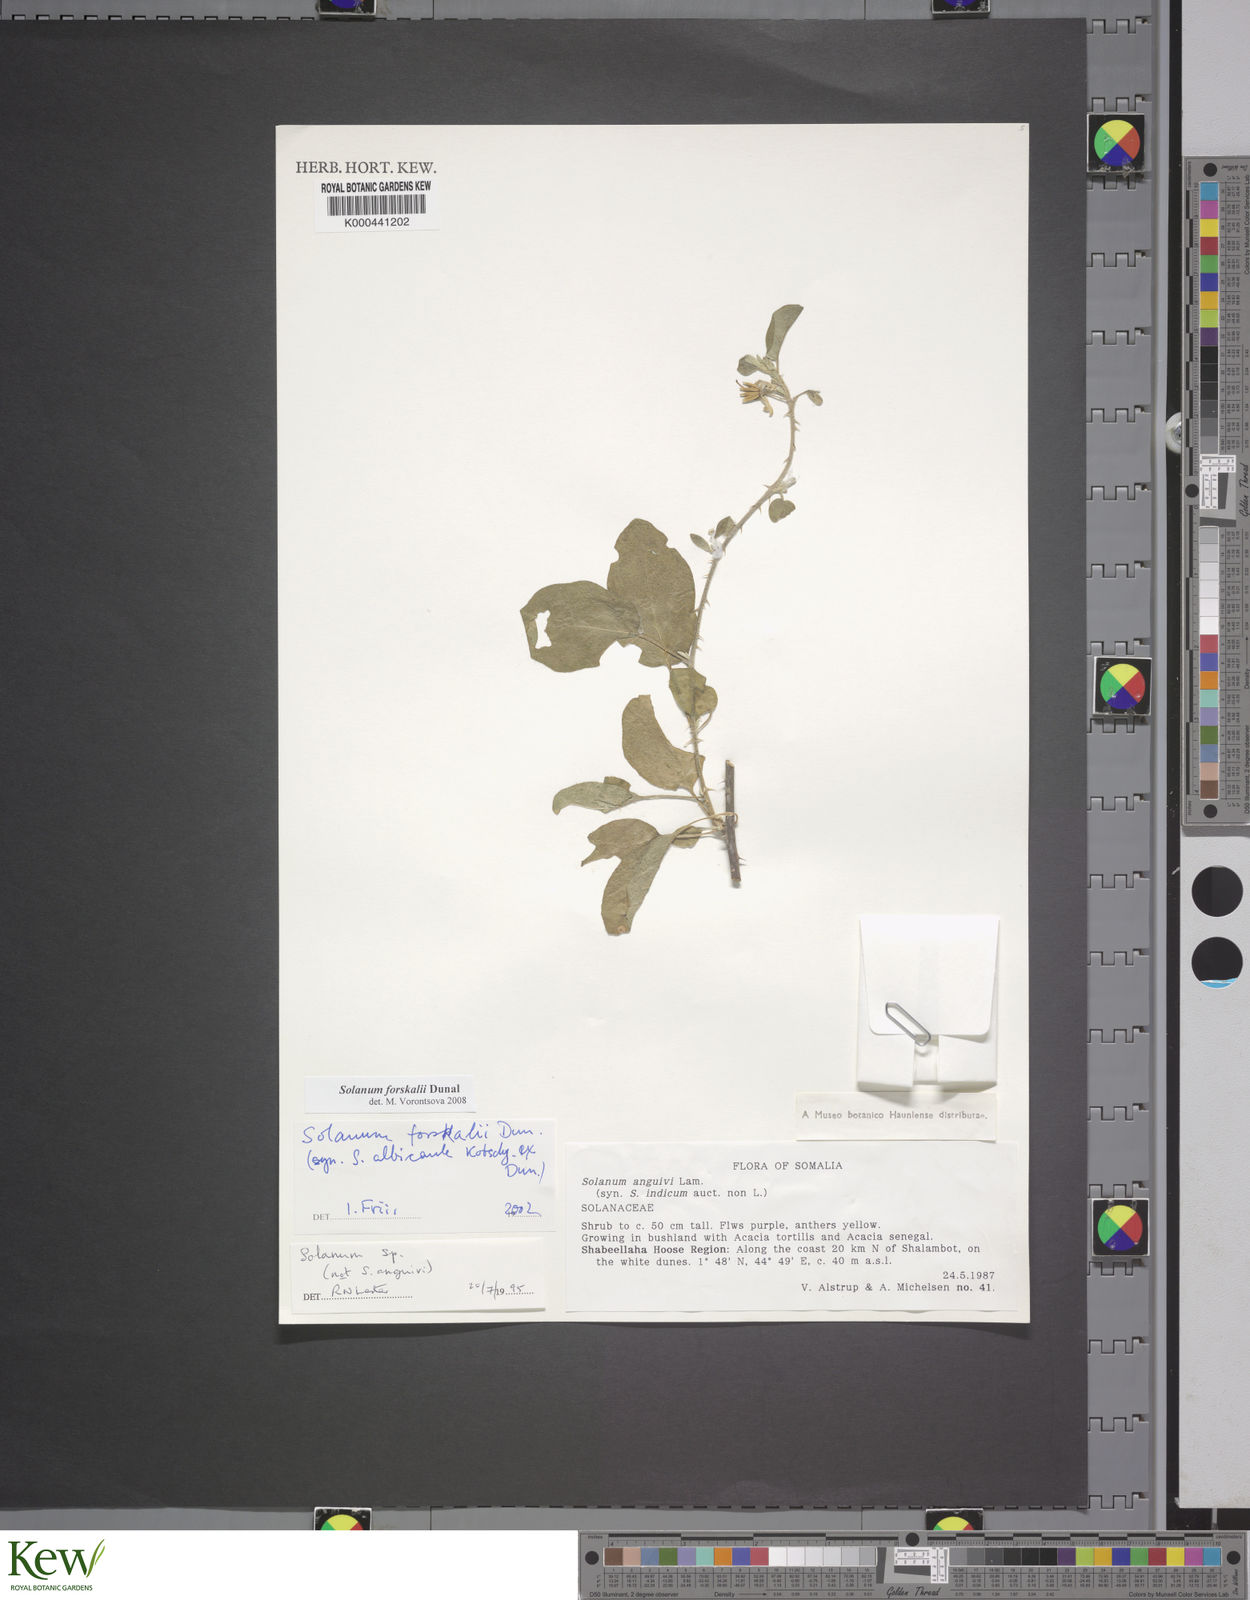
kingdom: Plantae
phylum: Tracheophyta
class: Magnoliopsida
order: Solanales
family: Solanaceae
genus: Solanum
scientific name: Solanum
